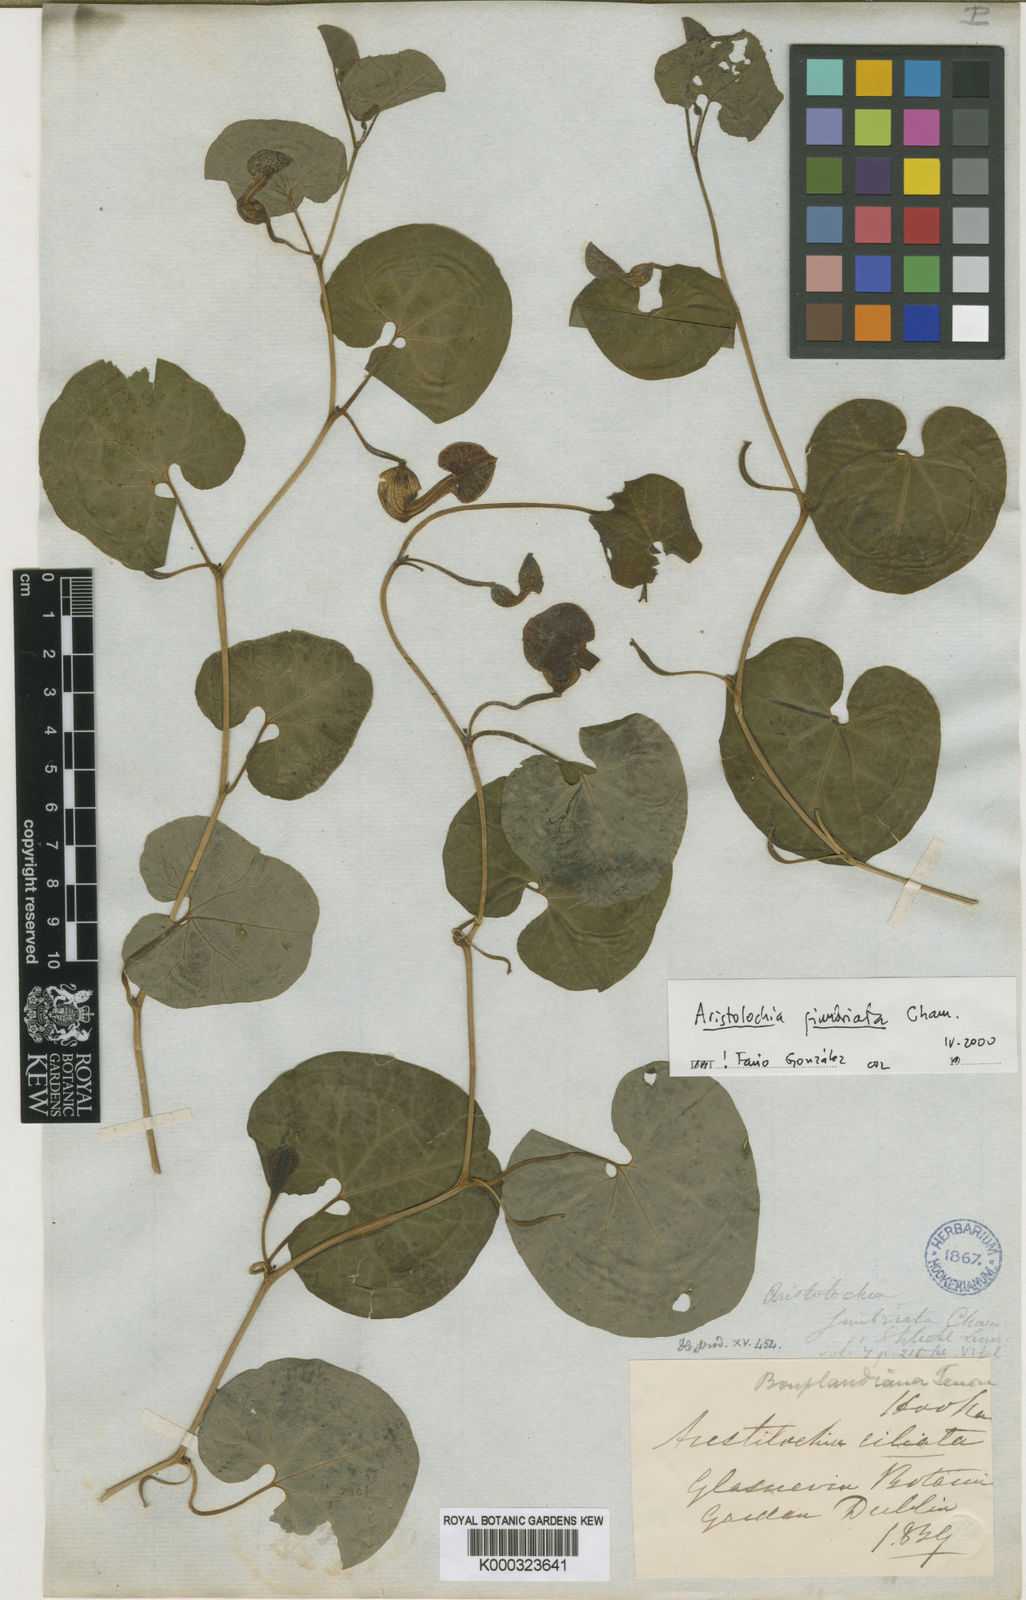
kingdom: Plantae
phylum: Tracheophyta
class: Magnoliopsida
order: Piperales
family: Aristolochiaceae
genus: Aristolochia
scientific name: Aristolochia fimbriata
